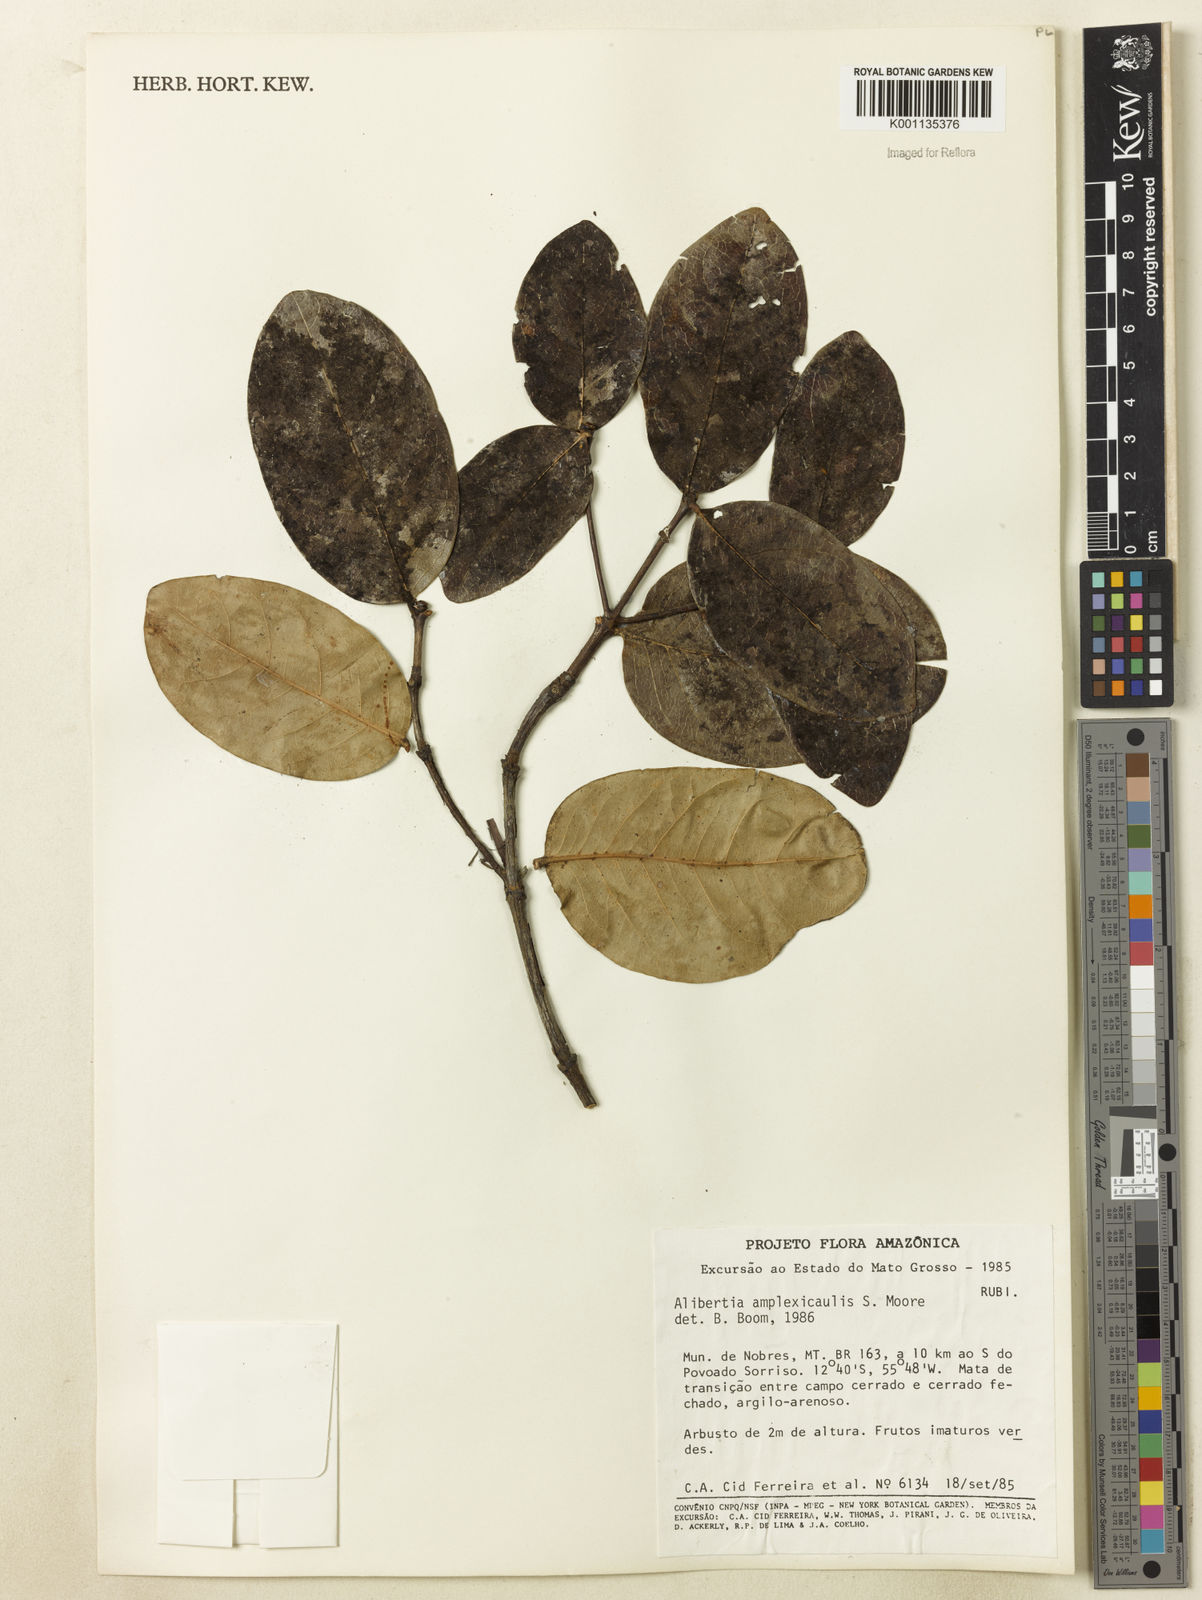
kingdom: Plantae
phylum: Tracheophyta
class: Magnoliopsida
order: Gentianales
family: Rubiaceae
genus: Cordiera
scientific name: Cordiera humilis
